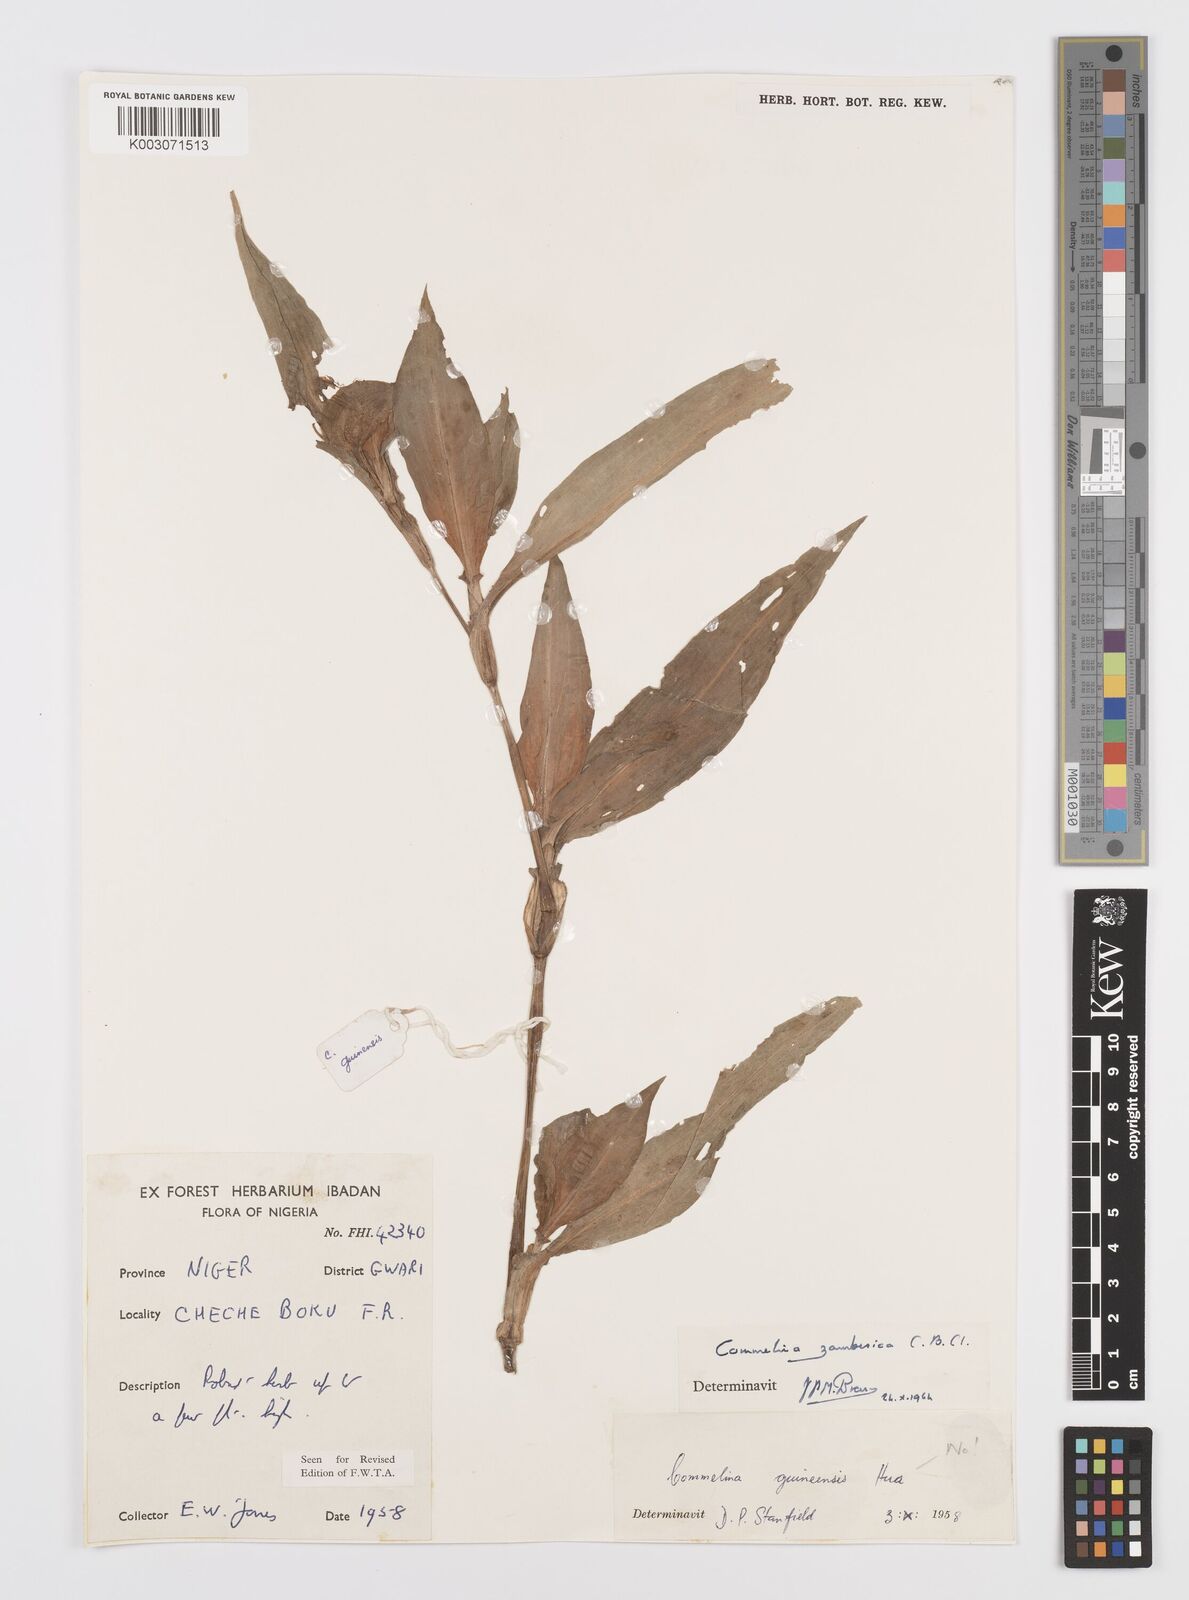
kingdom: Plantae
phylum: Tracheophyta
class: Liliopsida
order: Commelinales
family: Commelinaceae
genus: Commelina
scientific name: Commelina zambesica
